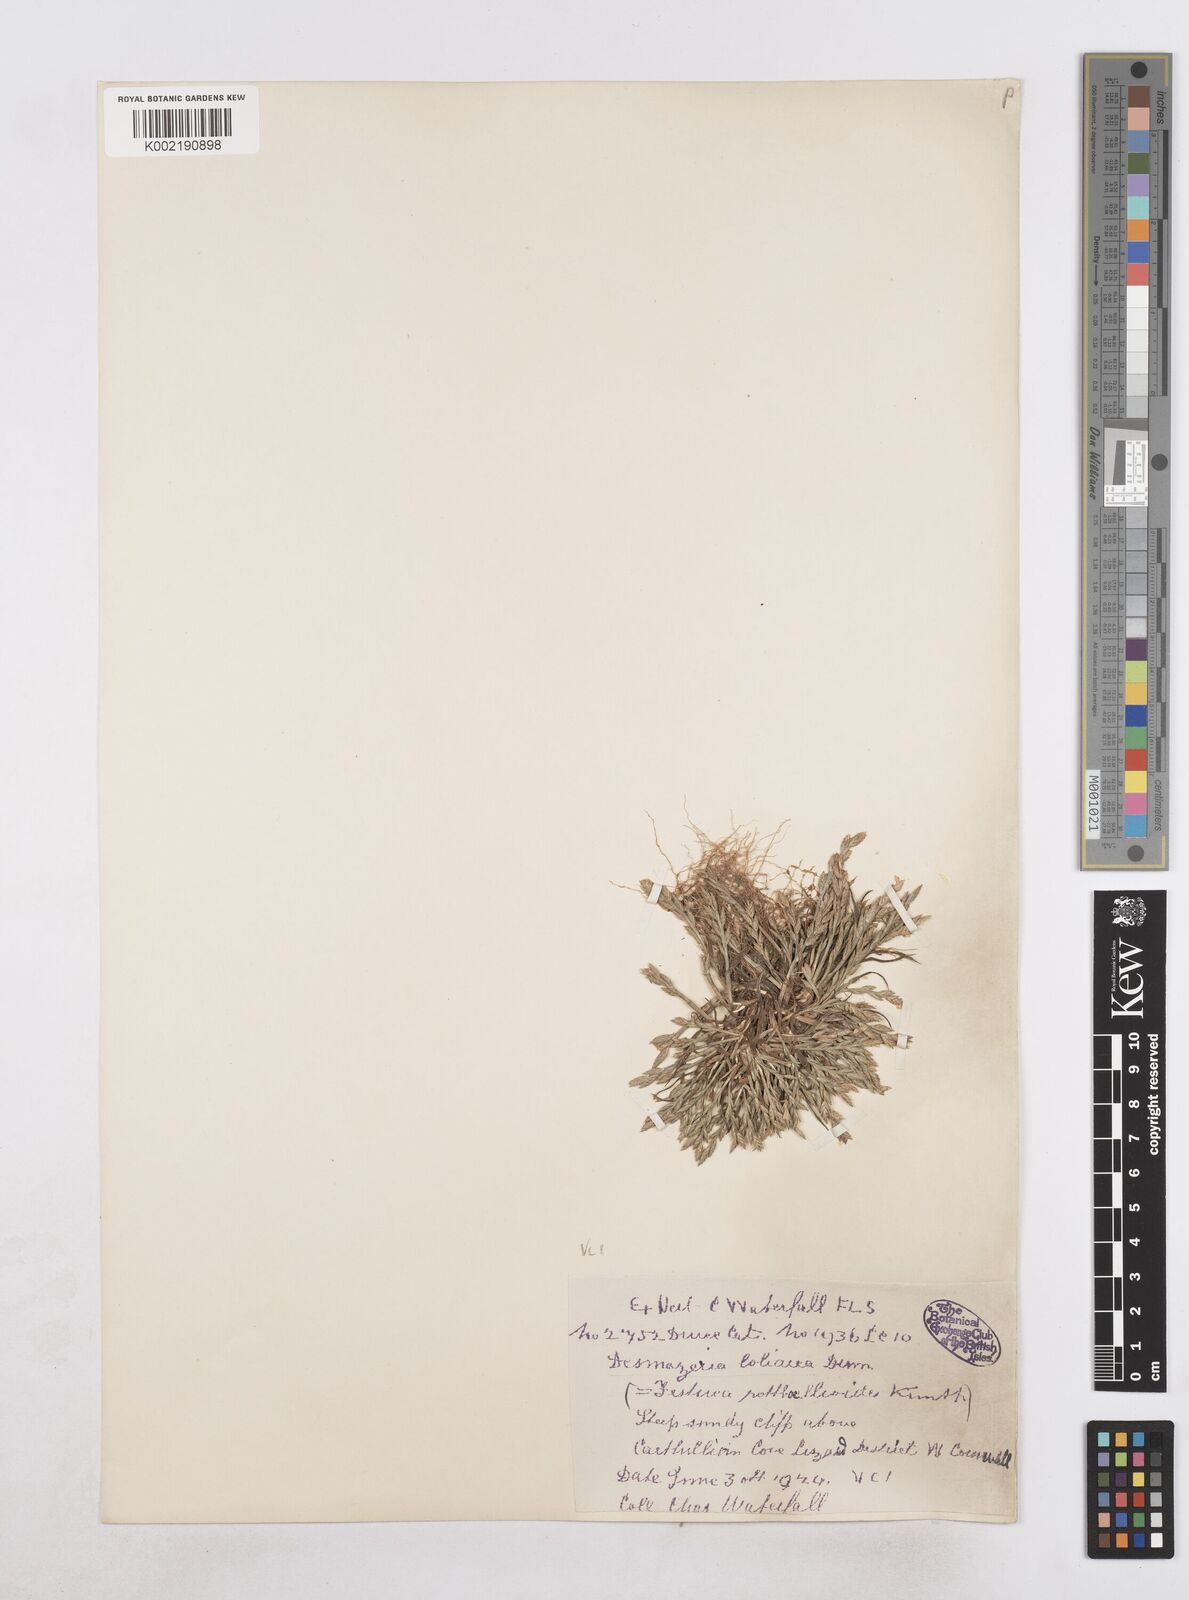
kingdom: Plantae
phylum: Tracheophyta
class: Liliopsida
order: Poales
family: Poaceae
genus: Catapodium
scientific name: Catapodium marinum
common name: Sea fern-grass
